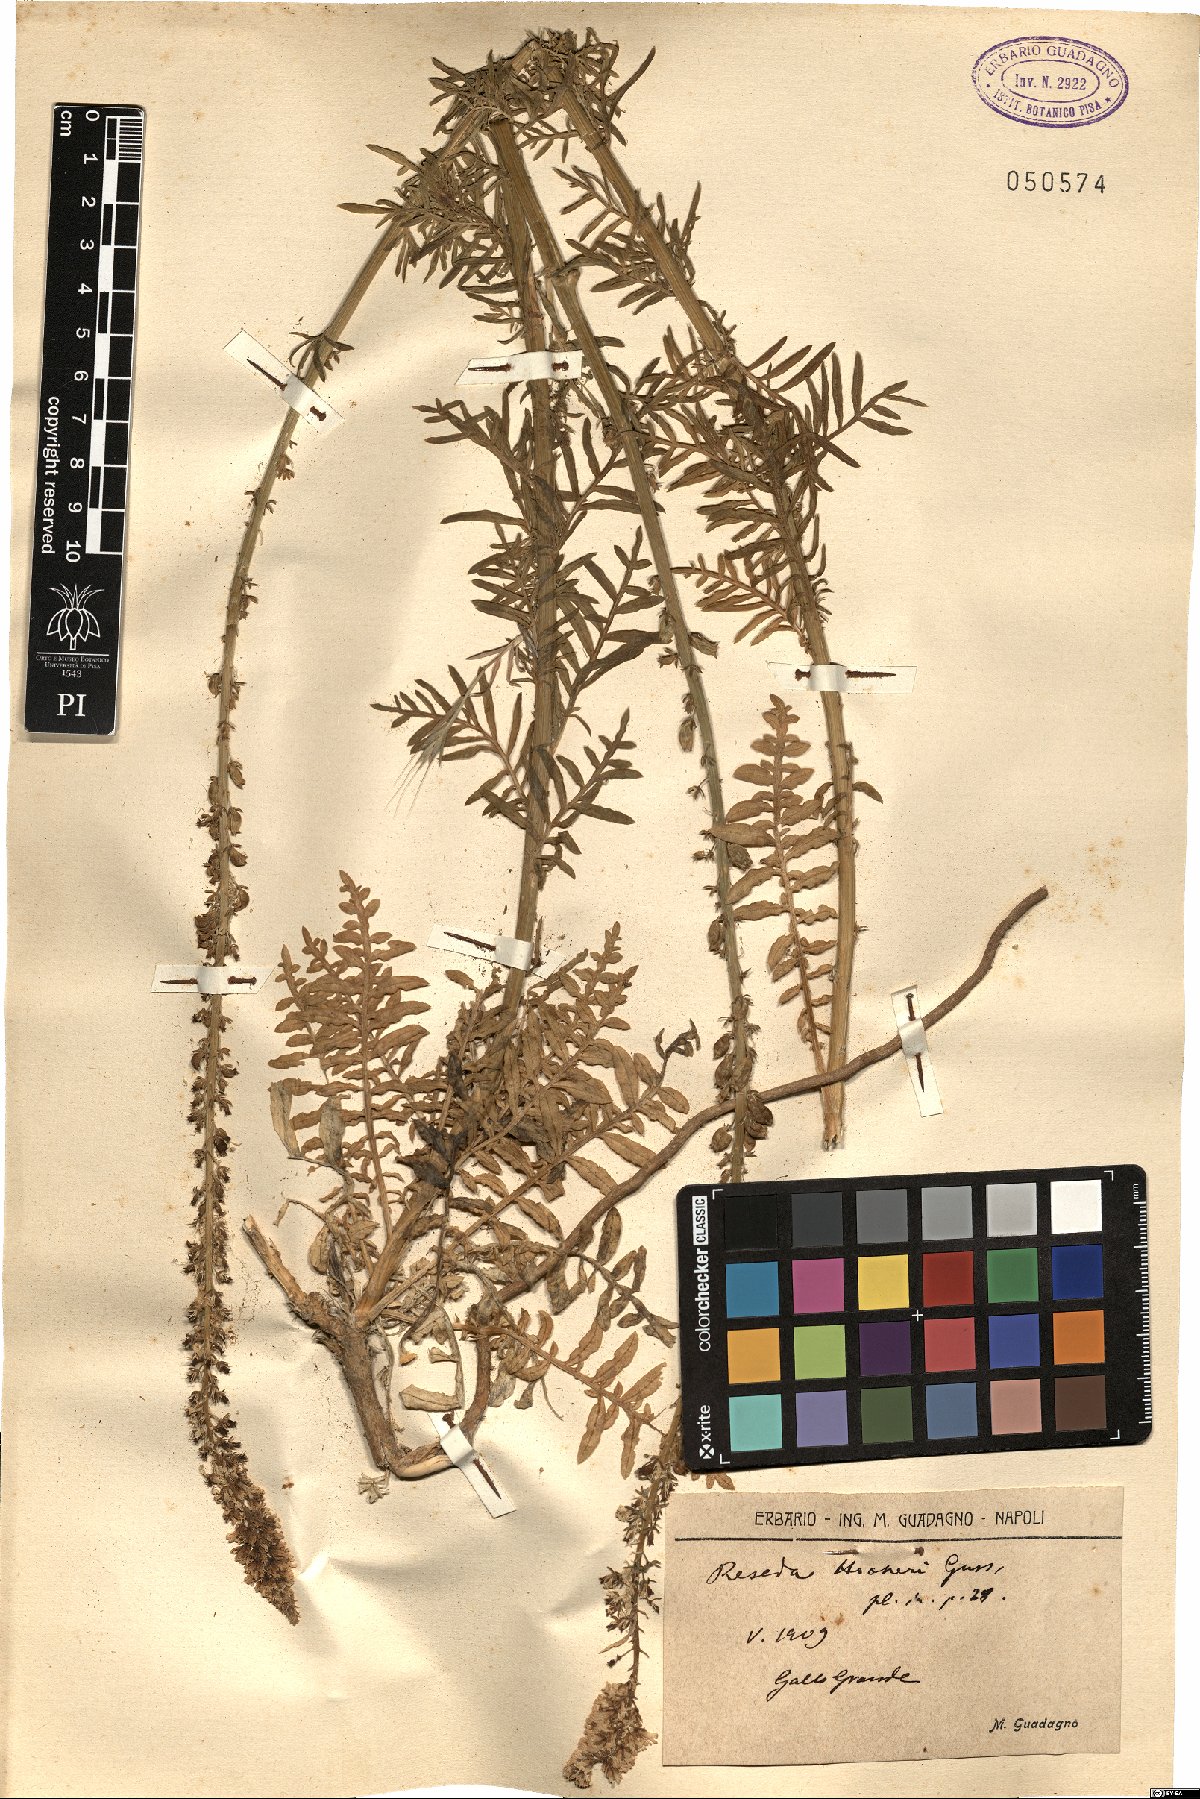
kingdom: Plantae
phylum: Tracheophyta
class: Magnoliopsida
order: Brassicales
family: Resedaceae
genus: Reseda
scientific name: Reseda alba
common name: White mignonette
